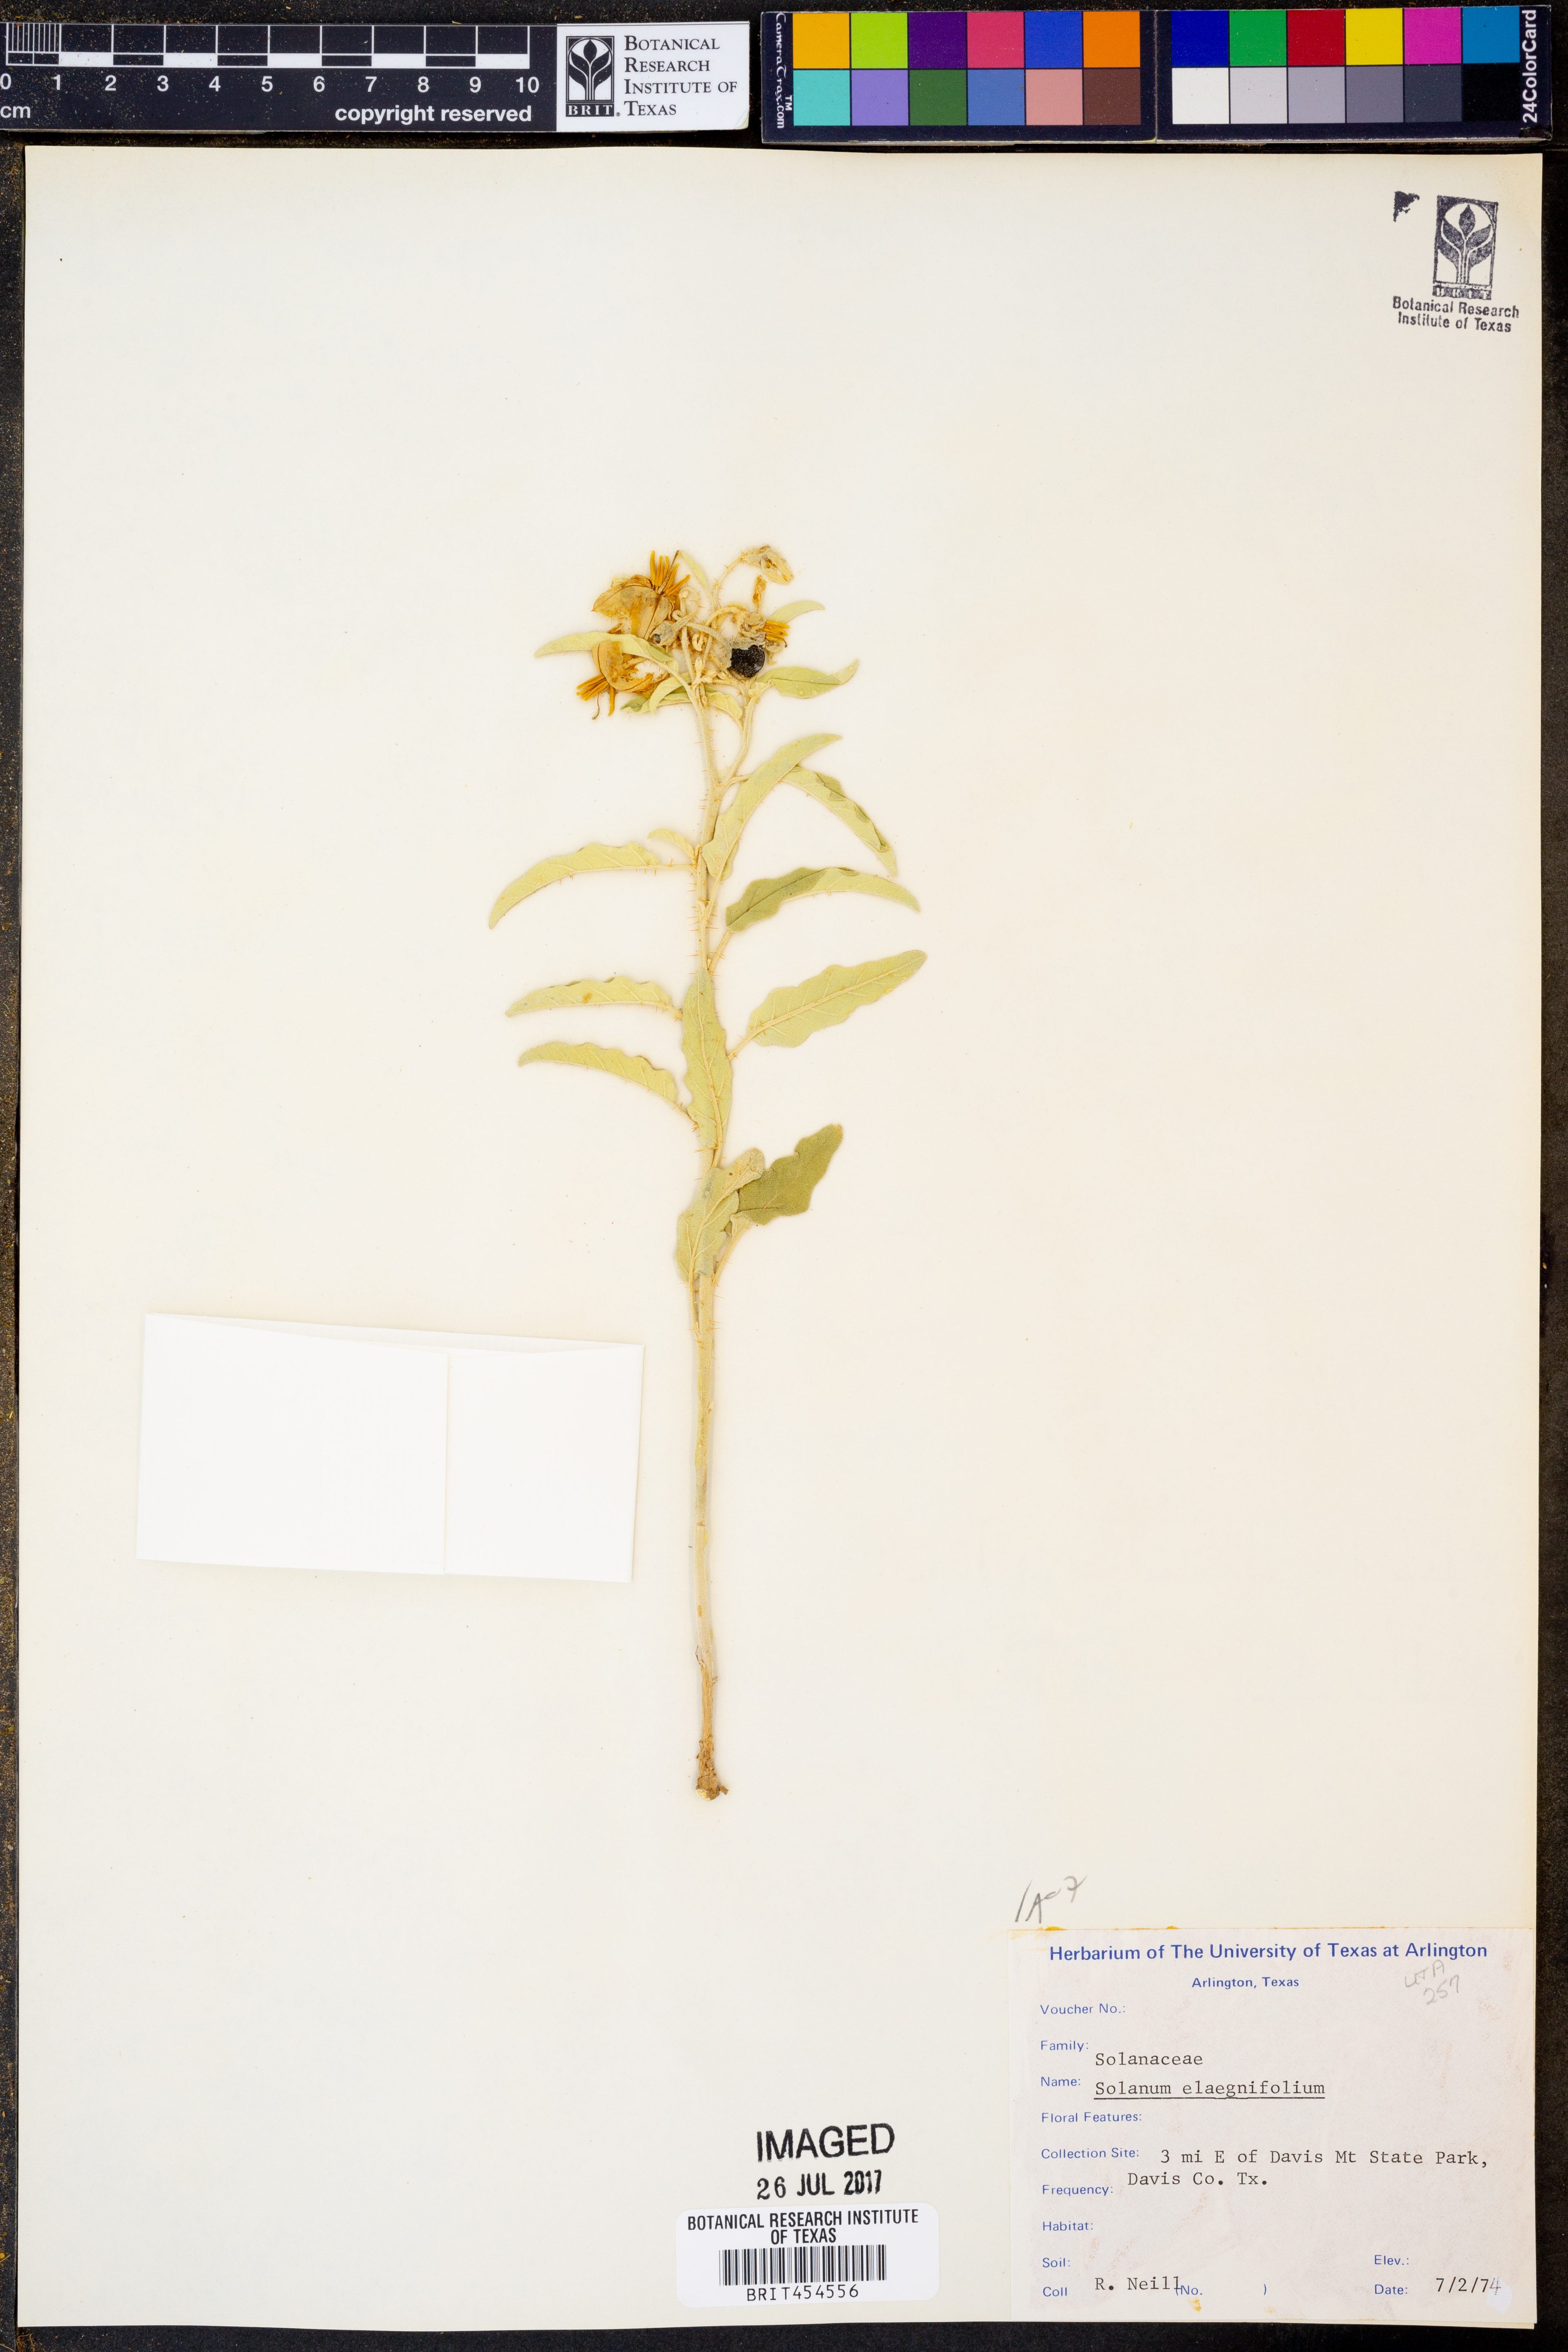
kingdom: Plantae
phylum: Tracheophyta
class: Magnoliopsida
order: Solanales
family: Solanaceae
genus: Solanum
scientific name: Solanum elaeagnifolium
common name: Silverleaf nightshade
